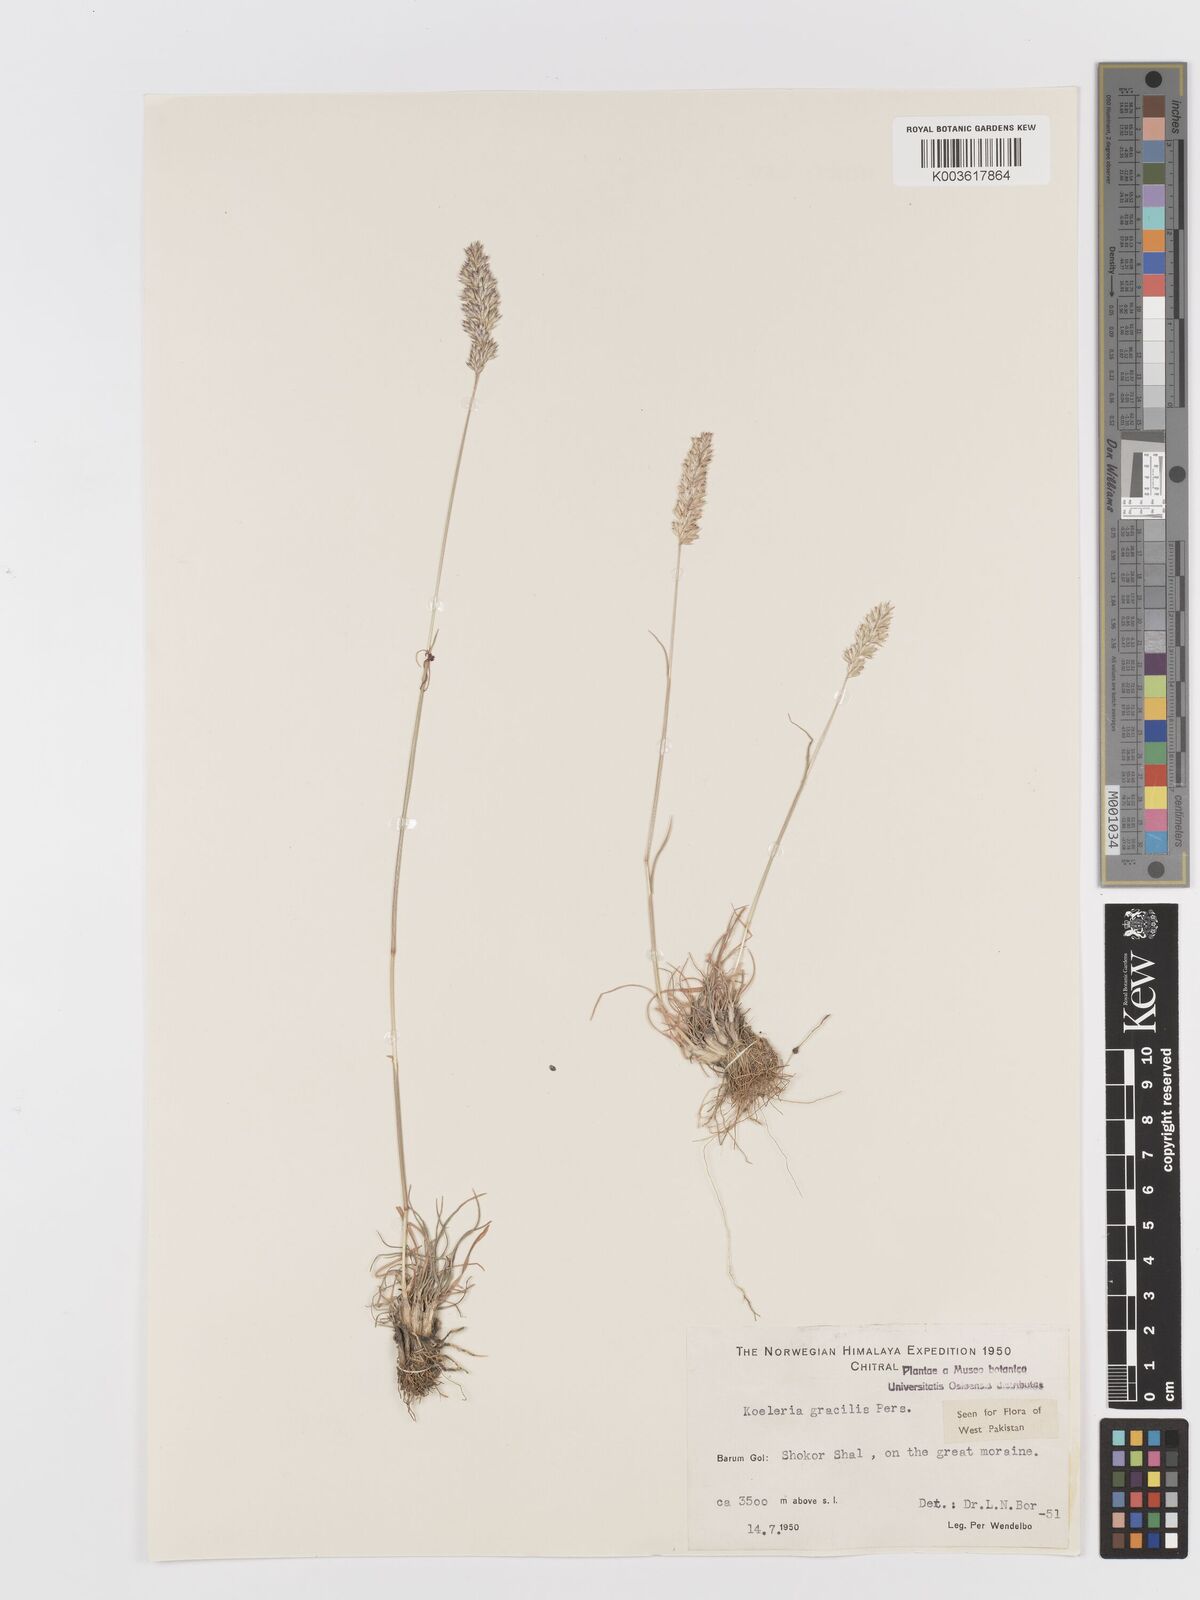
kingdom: Plantae
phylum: Tracheophyta
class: Liliopsida
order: Poales
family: Poaceae
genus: Koeleria
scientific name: Koeleria macrantha
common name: Crested hair-grass
